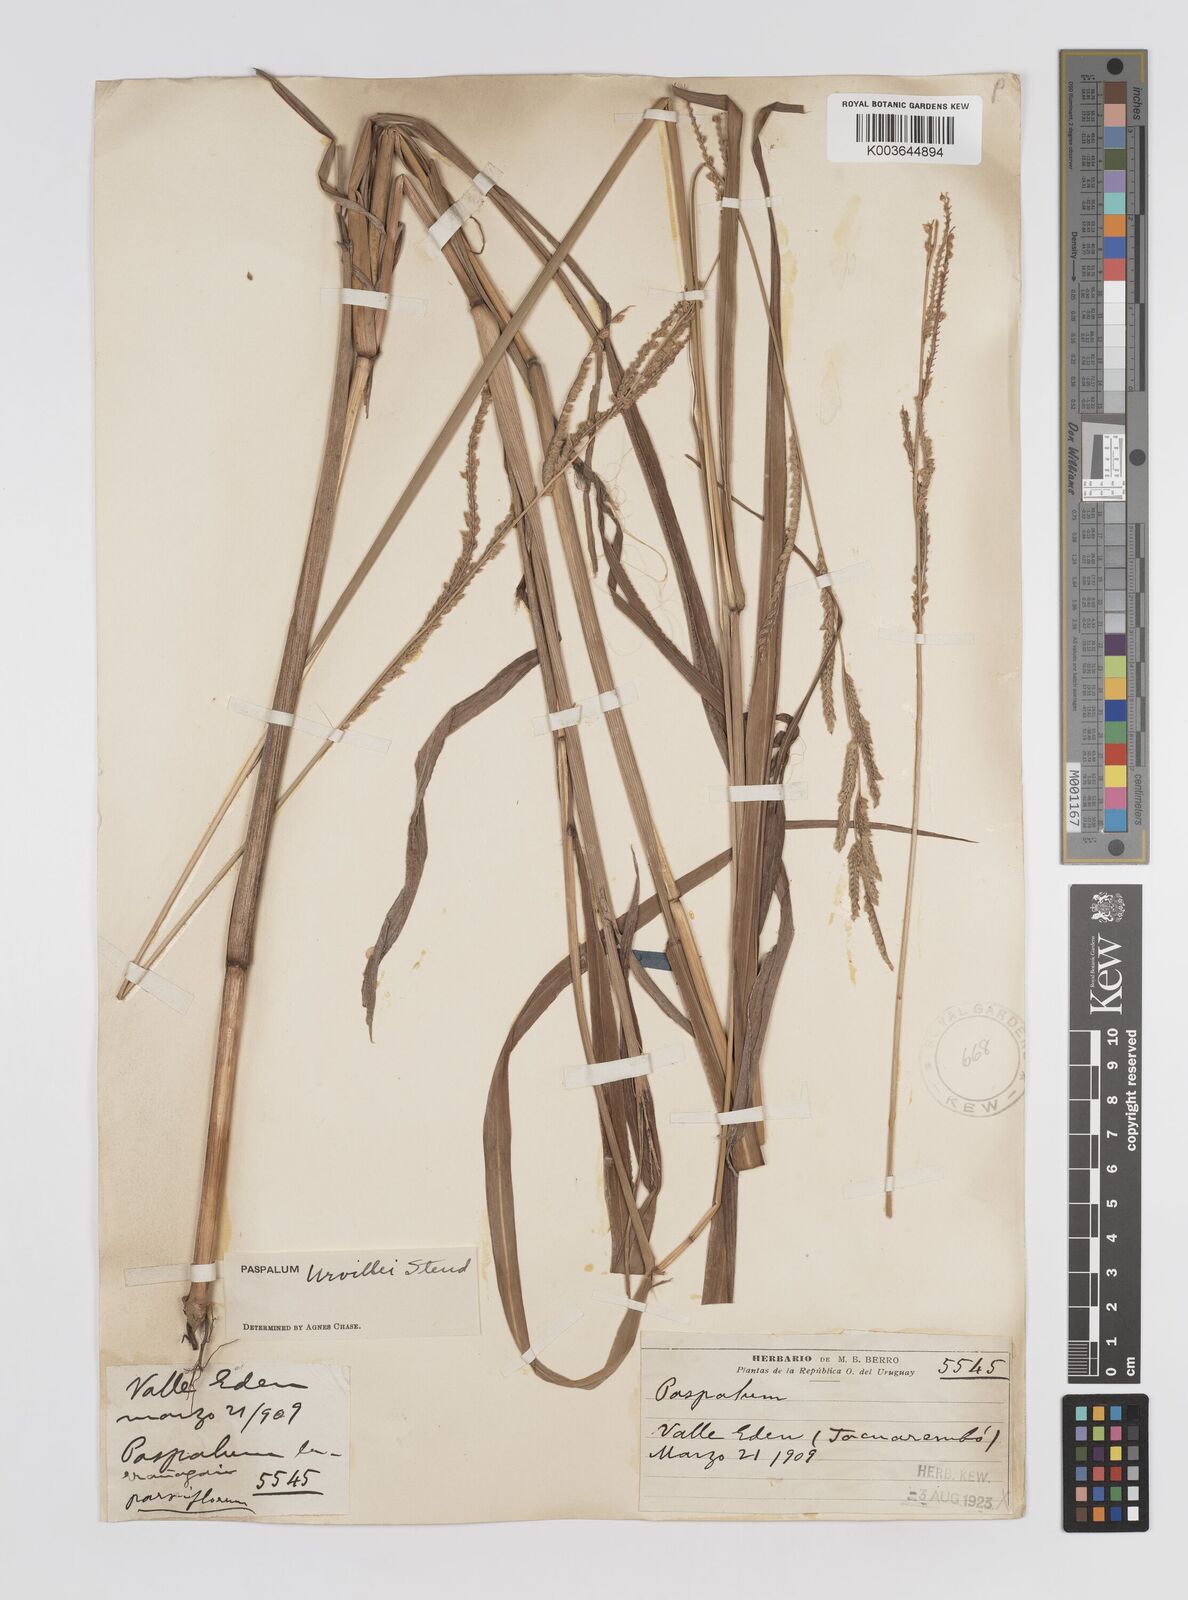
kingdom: Plantae
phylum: Tracheophyta
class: Liliopsida
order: Poales
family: Poaceae
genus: Paspalum
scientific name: Paspalum urvillei
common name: Vasey's grass
